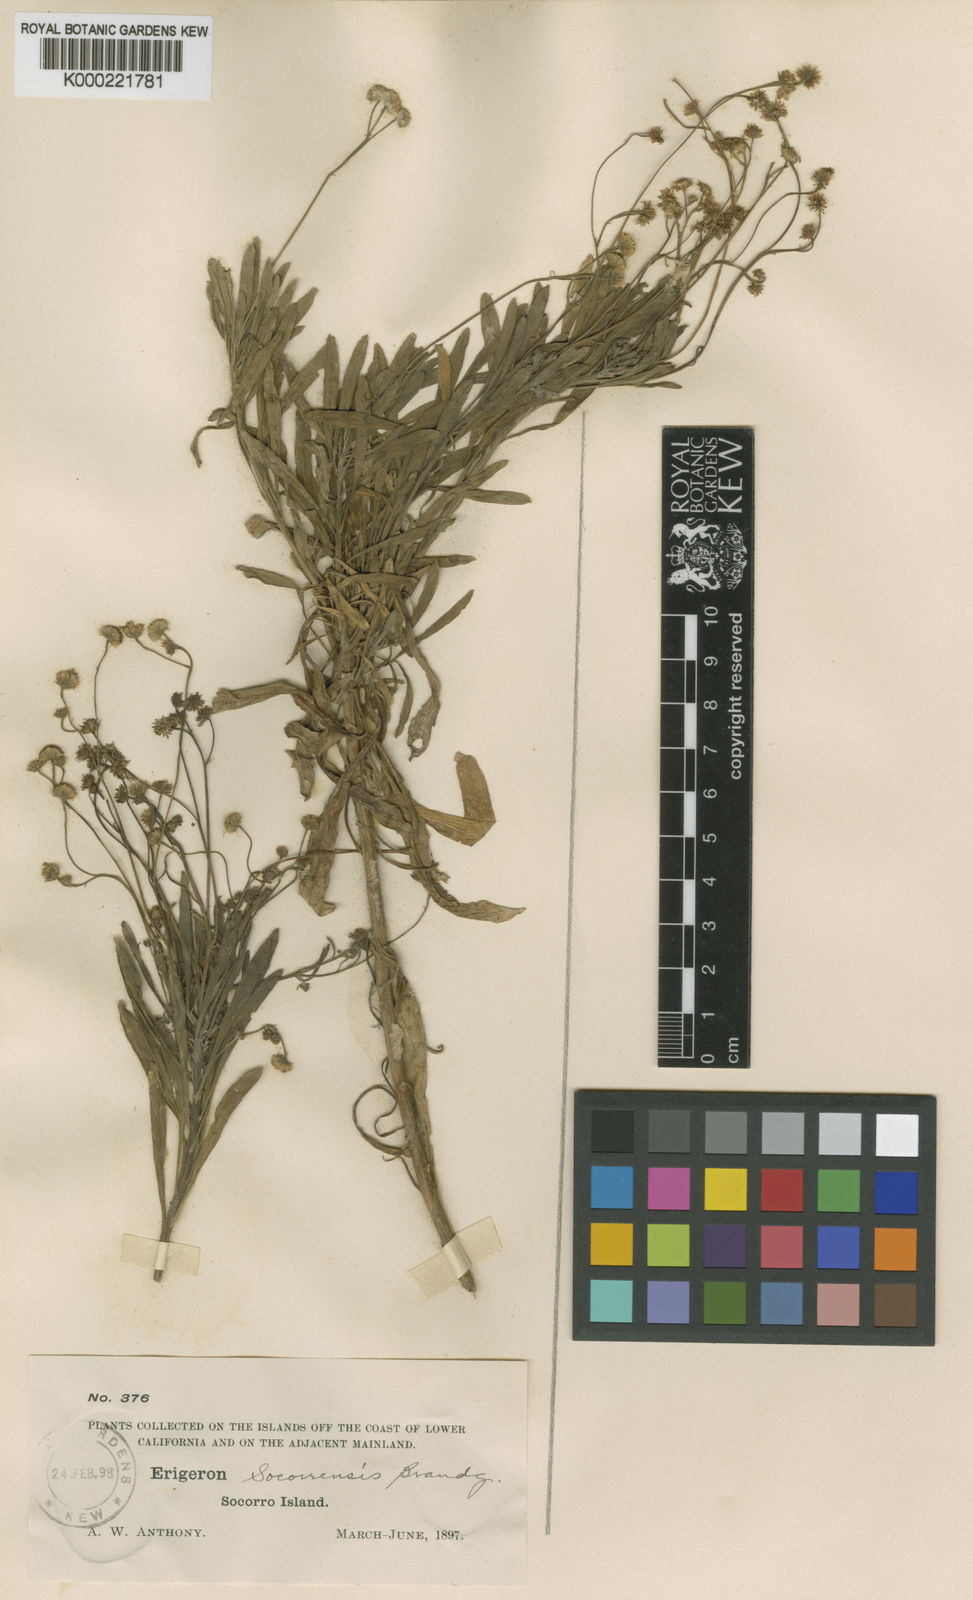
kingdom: Plantae
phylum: Tracheophyta
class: Magnoliopsida
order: Asterales
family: Asteraceae
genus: Erigeron
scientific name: Erigeron socorrensis
